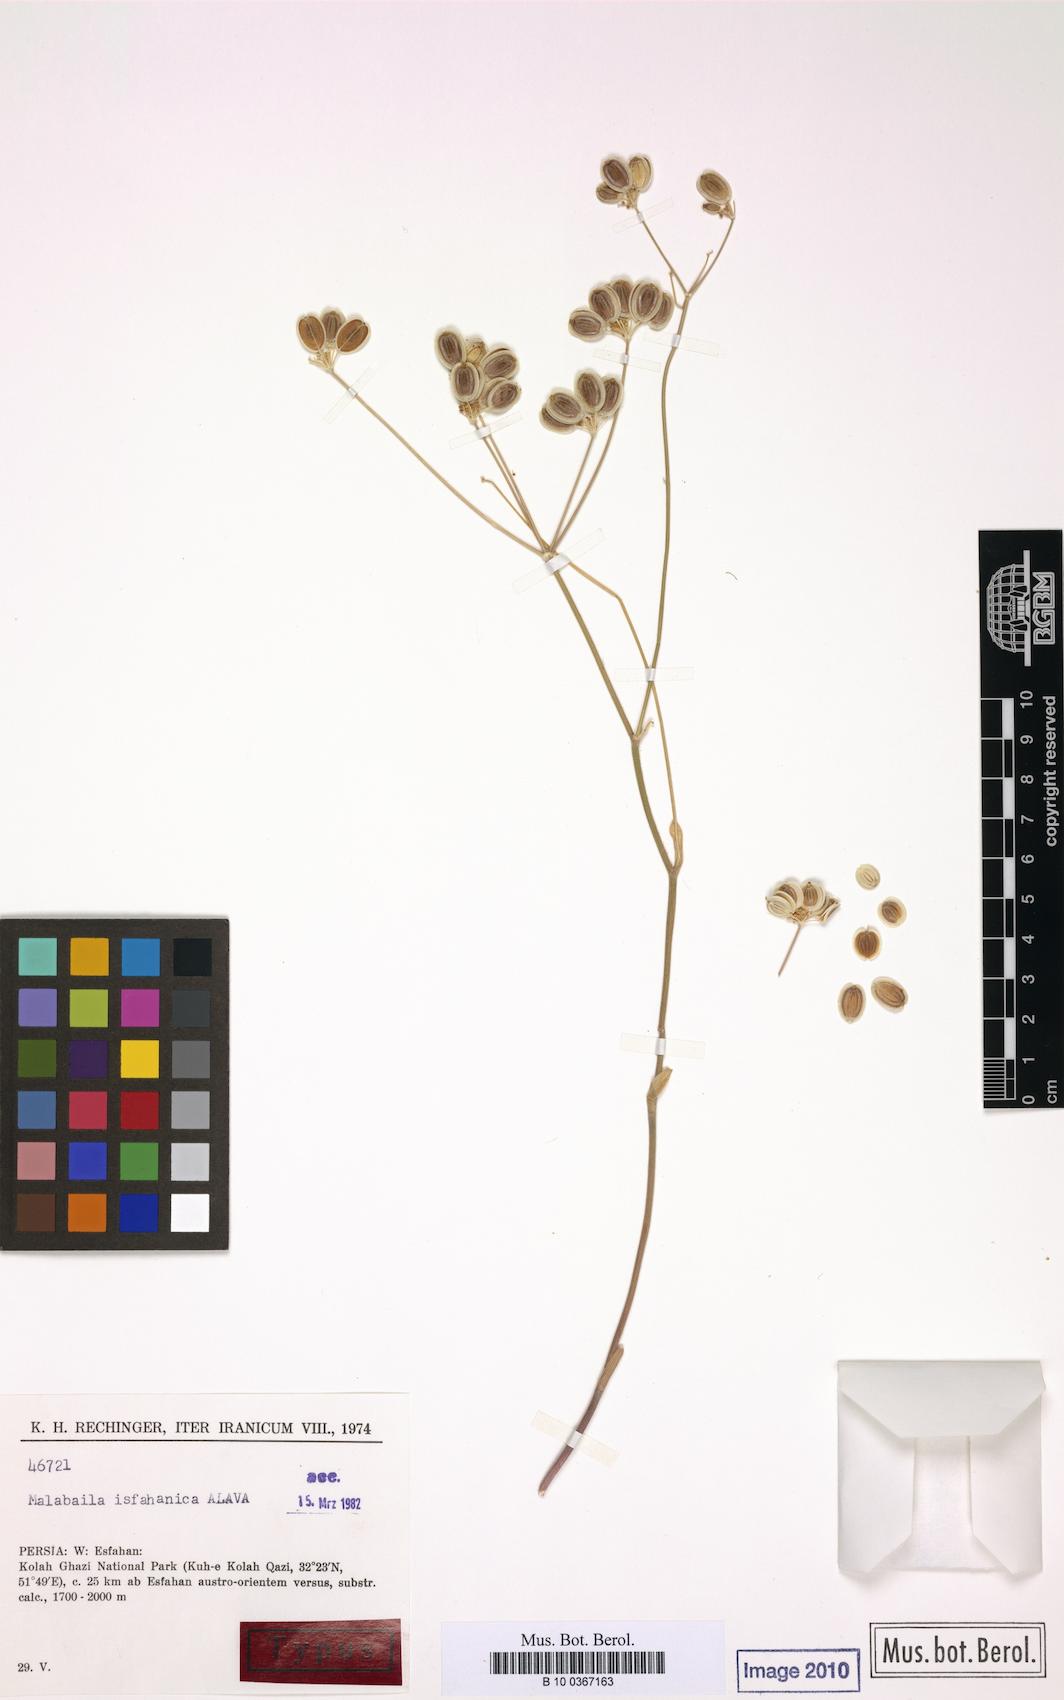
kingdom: Plantae
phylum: Tracheophyta
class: Magnoliopsida
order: Apiales
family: Apiaceae
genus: Leiotulus
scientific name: Leiotulus isfahanicus
